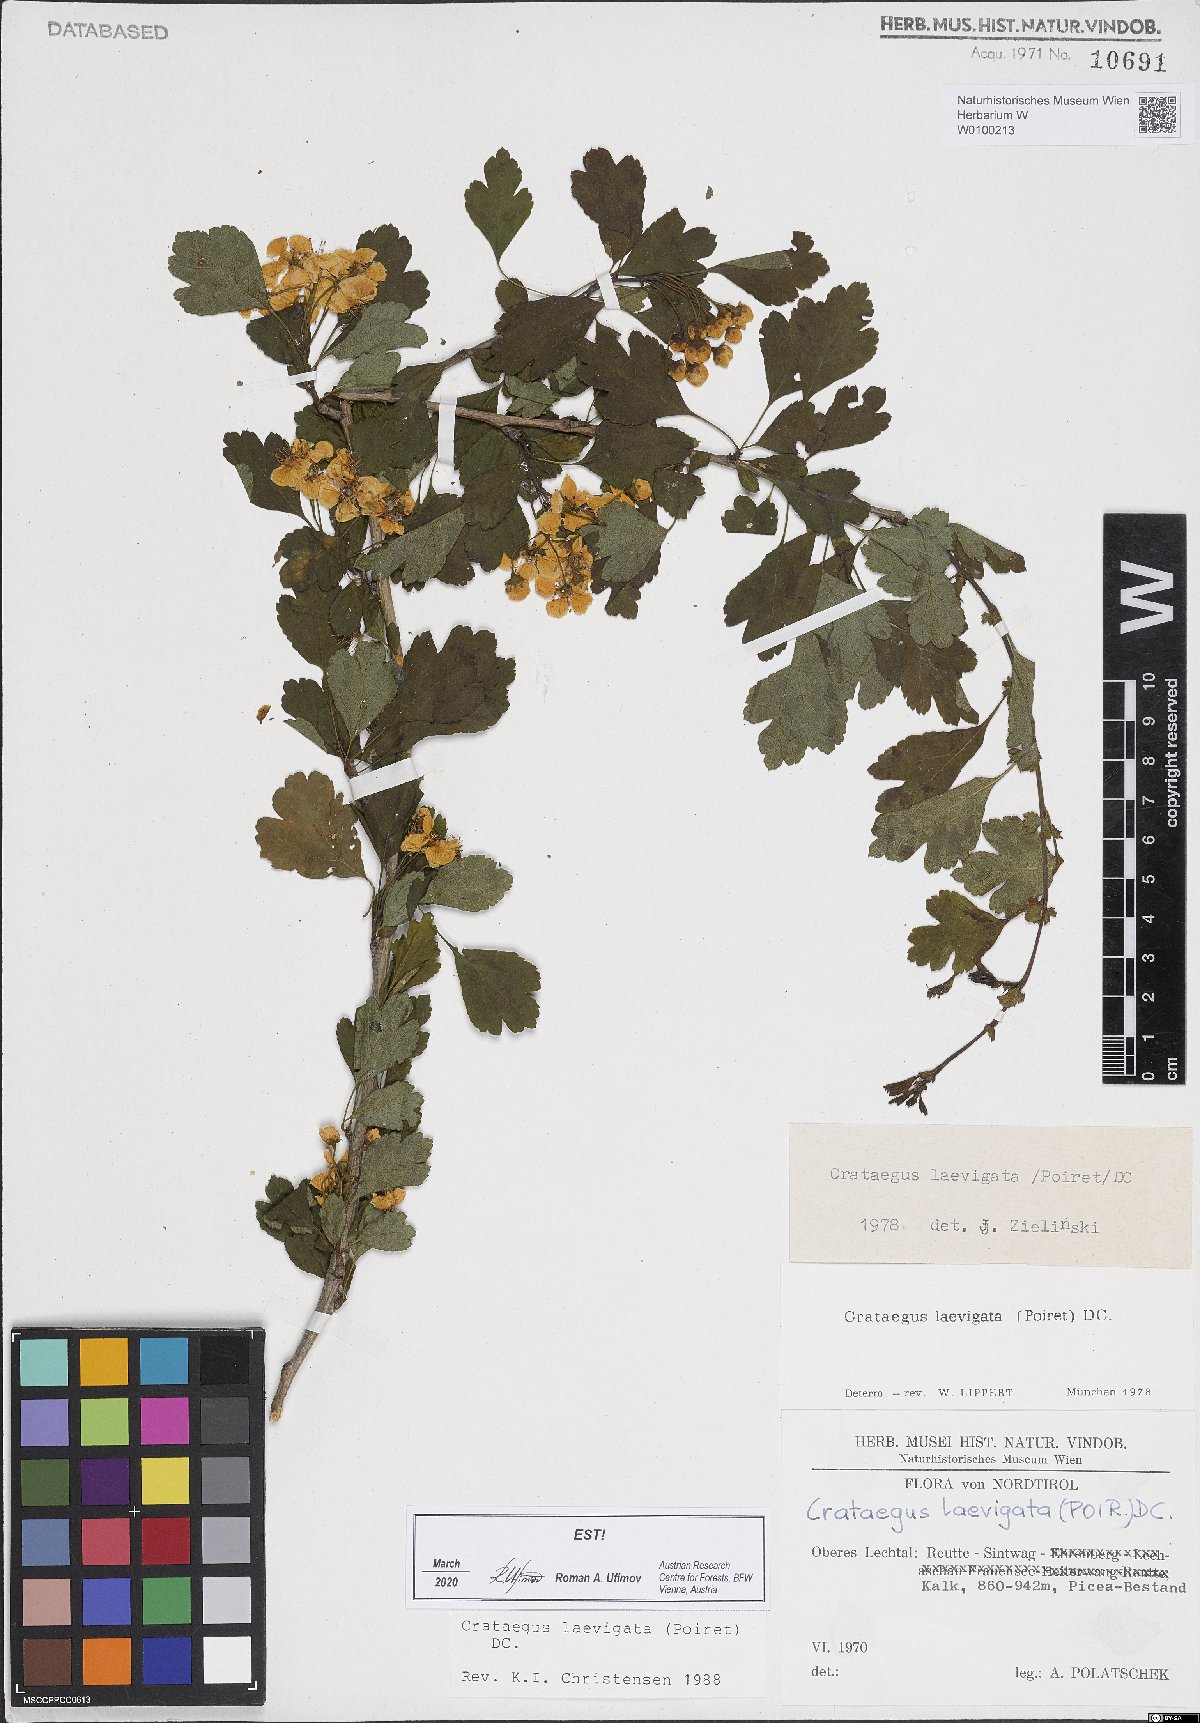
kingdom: Plantae
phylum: Tracheophyta
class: Magnoliopsida
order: Rosales
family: Rosaceae
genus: Crataegus
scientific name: Crataegus laevigata
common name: Midland hawthorn
